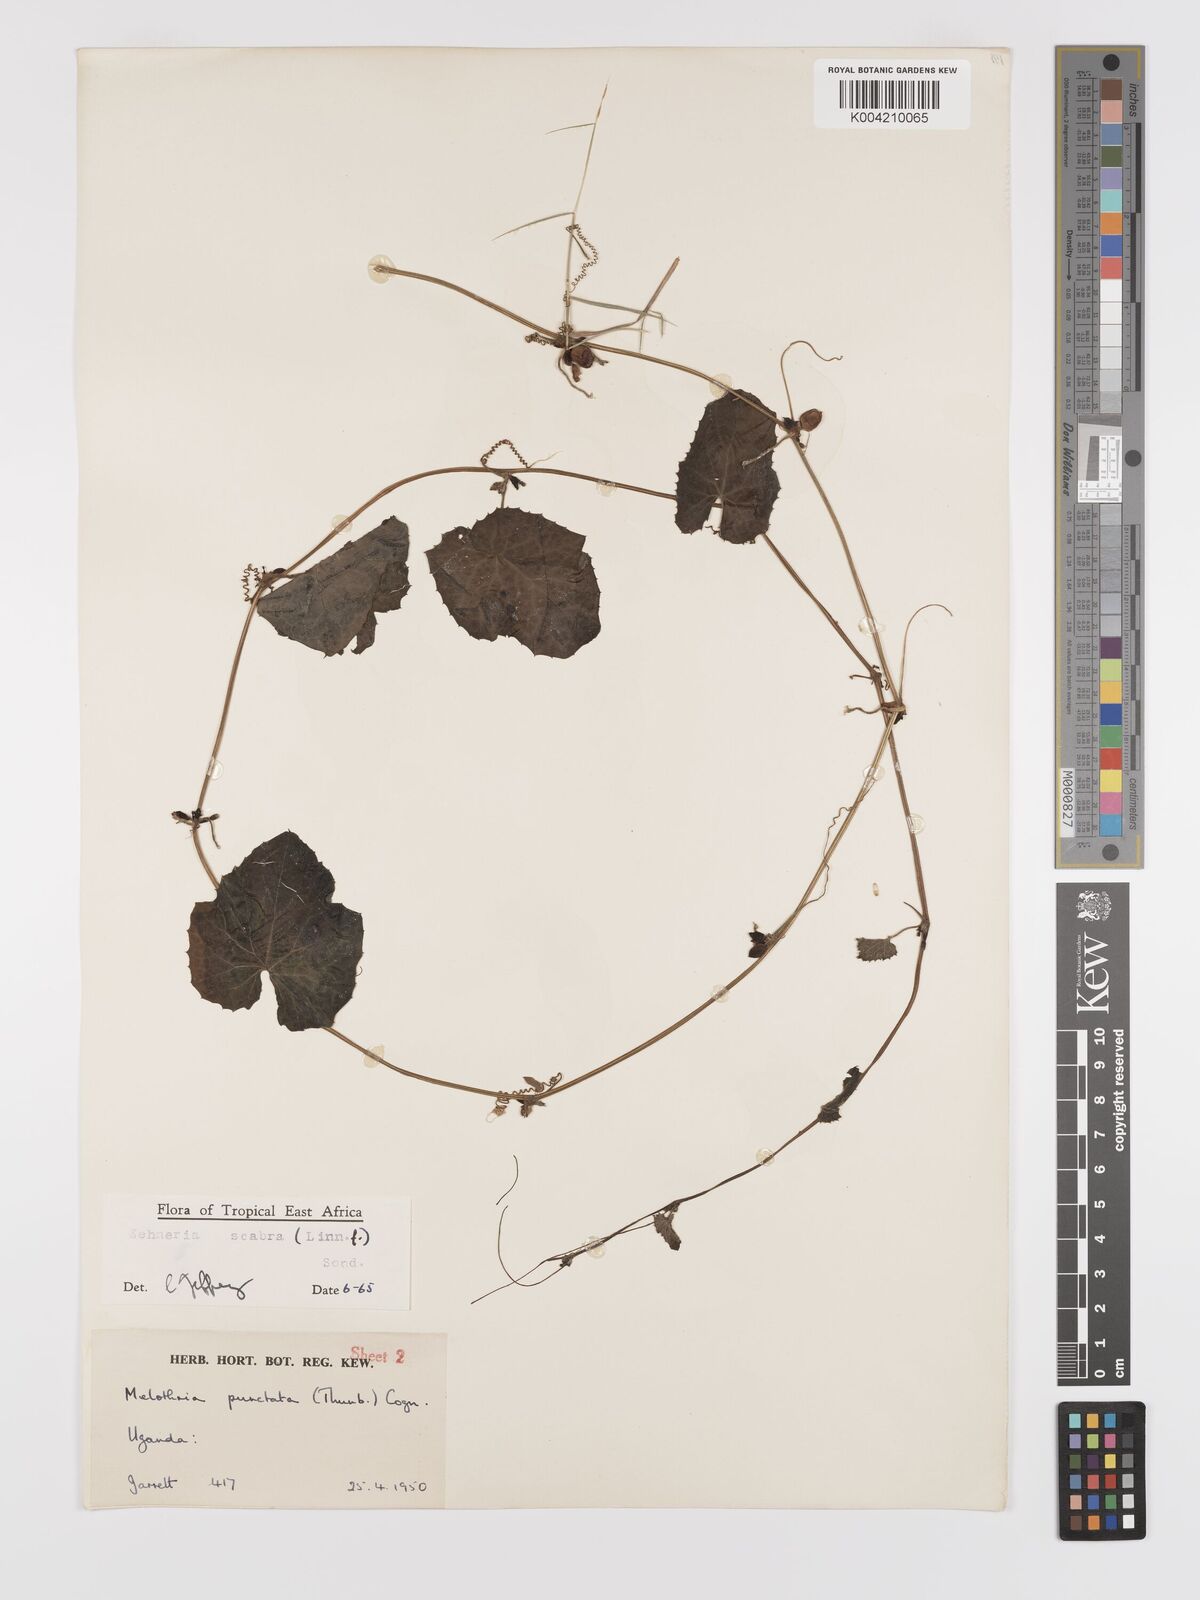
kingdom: Plantae
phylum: Tracheophyta
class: Magnoliopsida
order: Cucurbitales
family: Cucurbitaceae
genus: Zehneria
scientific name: Zehneria scabra
